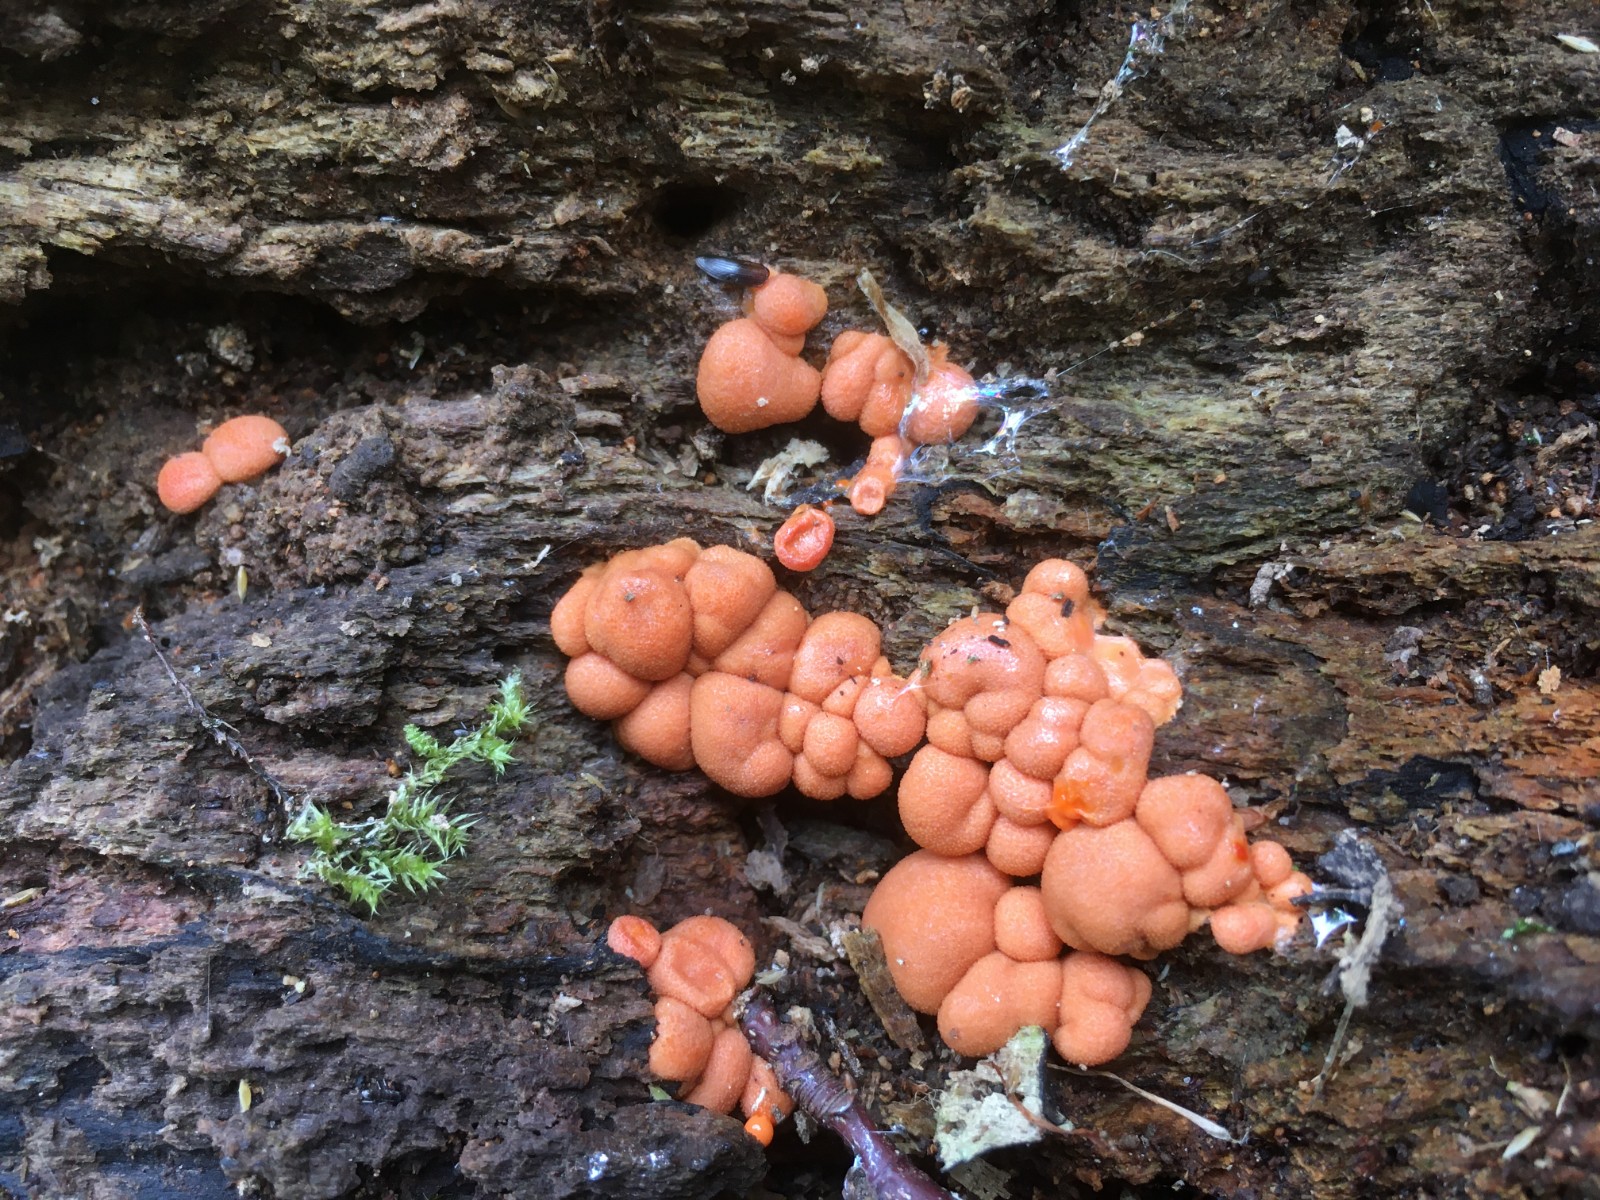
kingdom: Protozoa
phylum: Mycetozoa
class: Myxomycetes
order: Cribrariales
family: Tubiferaceae
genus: Lycogala
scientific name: Lycogala epidendrum
